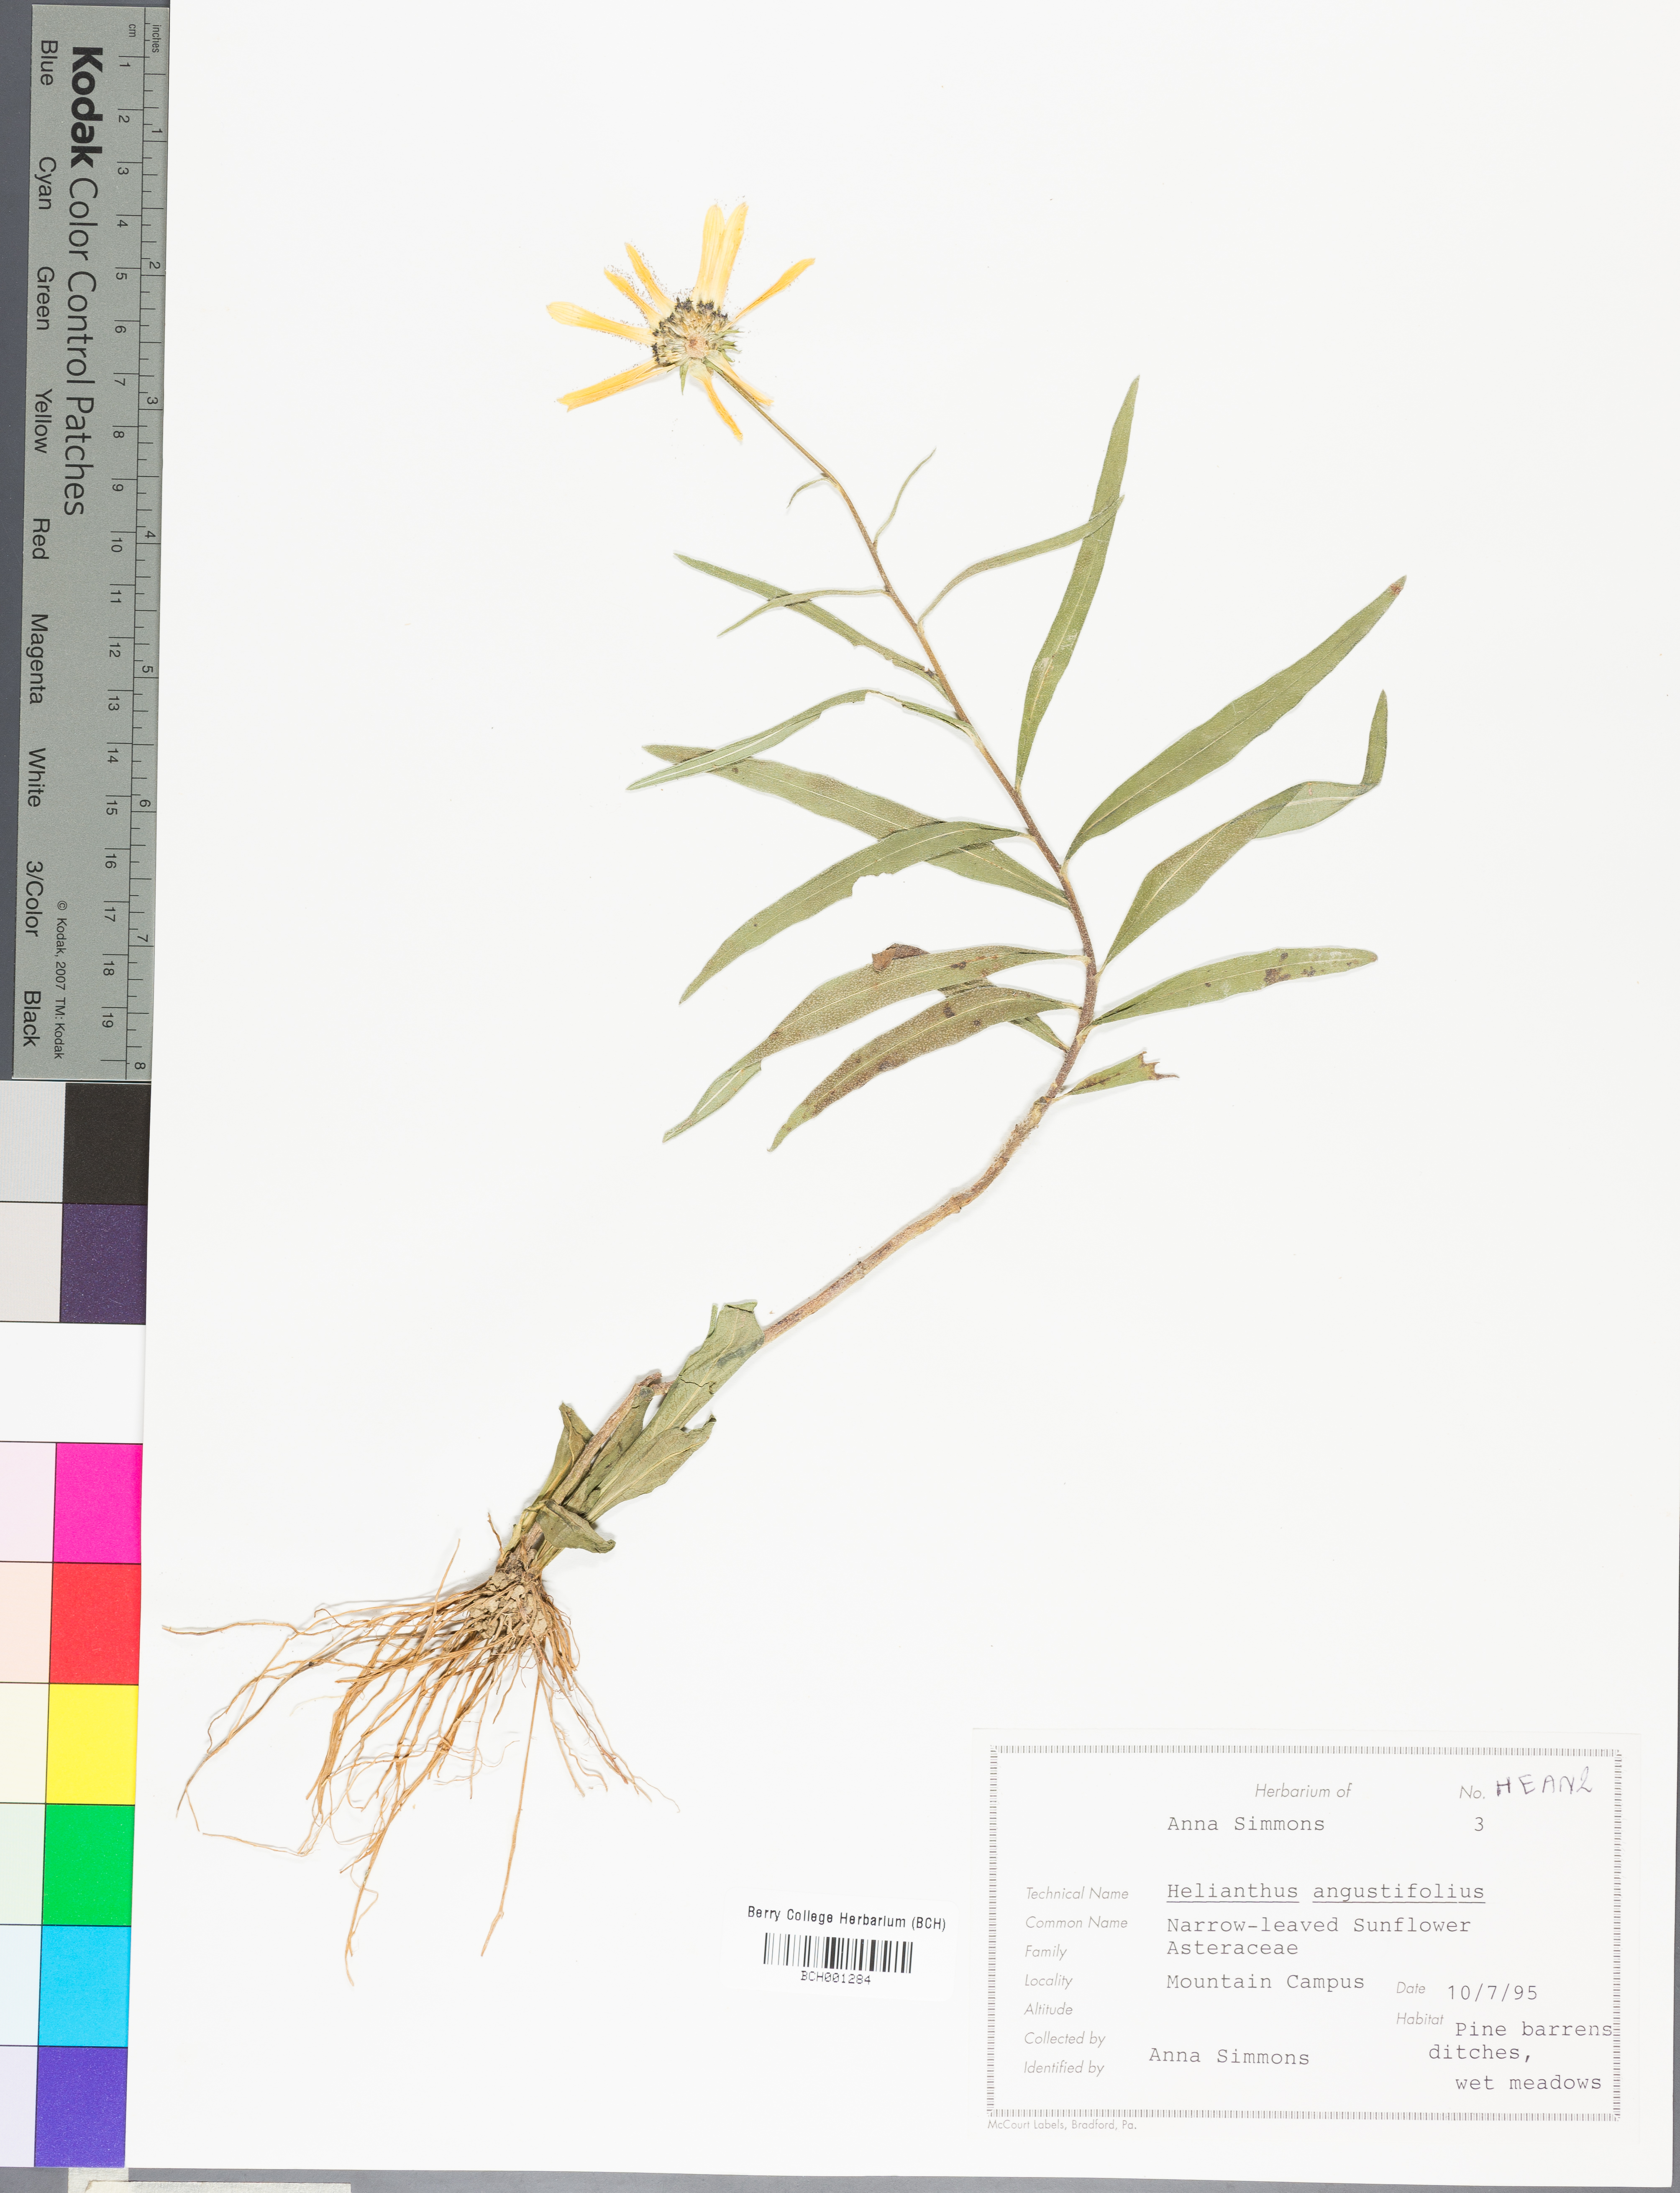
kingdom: Plantae
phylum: Tracheophyta
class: Magnoliopsida
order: Asterales
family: Asteraceae
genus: Helianthus
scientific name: Helianthus angustifolius
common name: Swamp sunflower
